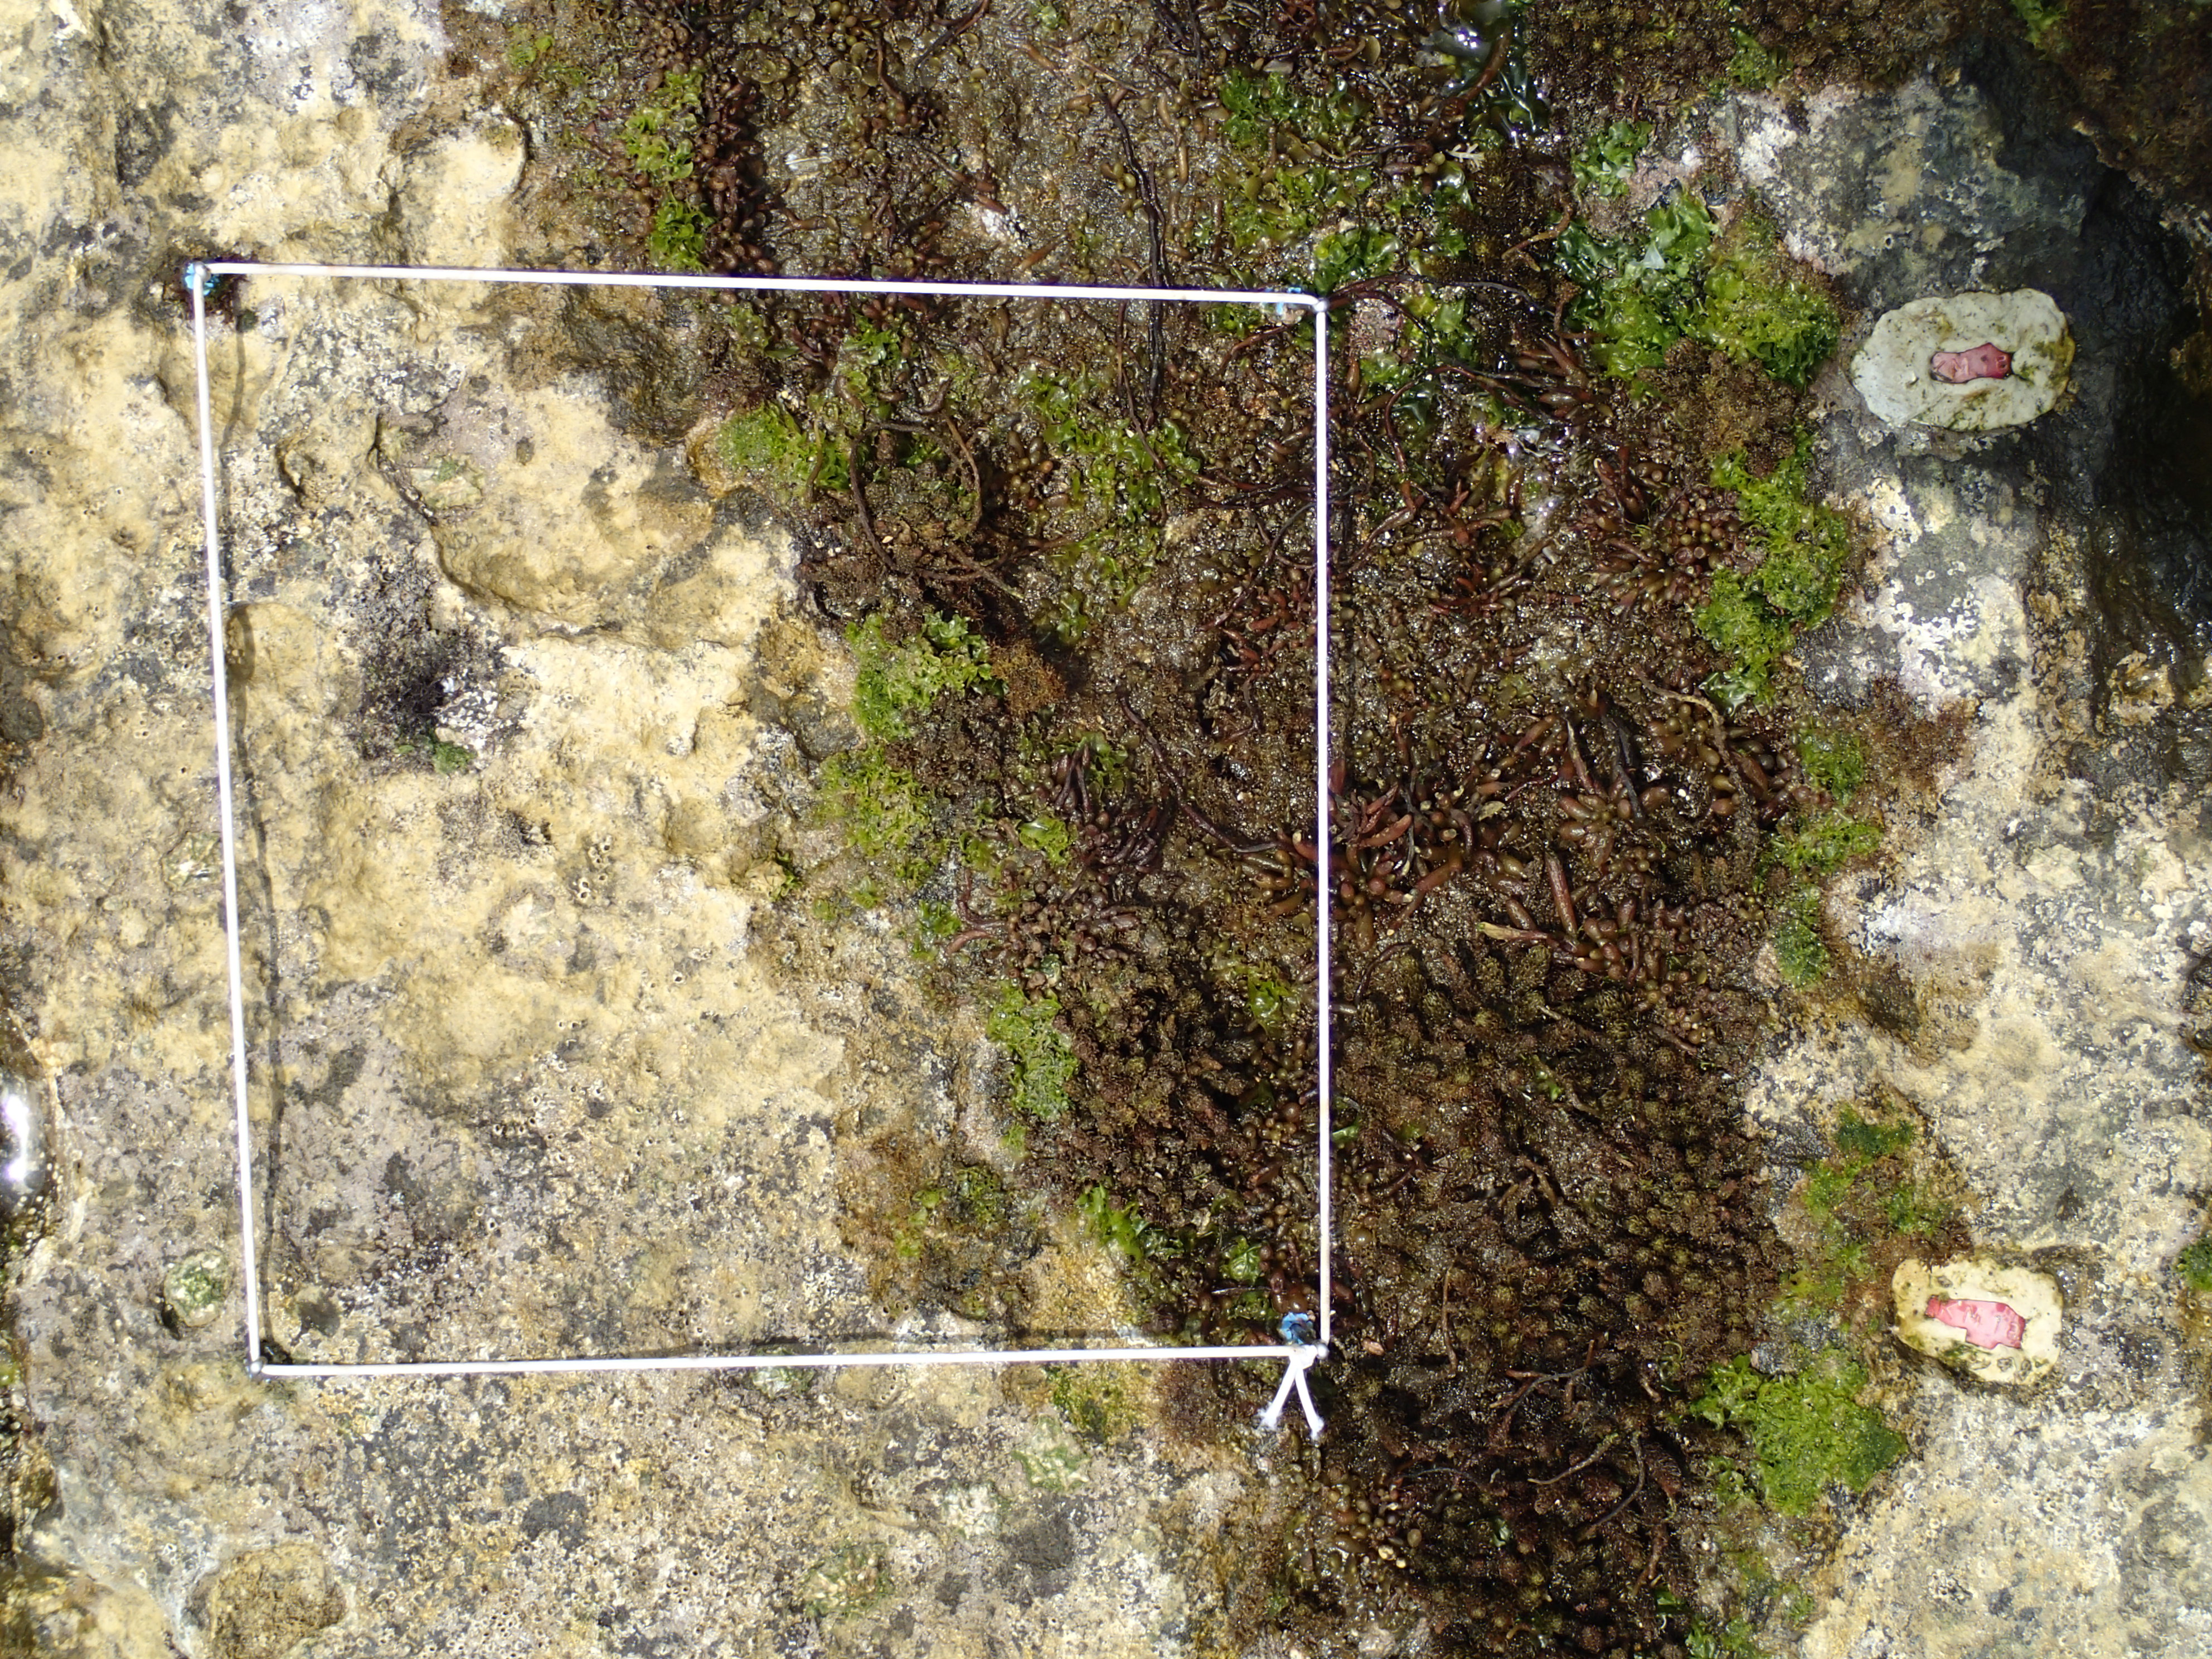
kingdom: Chromista
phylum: Ochrophyta
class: Phaeophyceae
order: Fucales
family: Sargassaceae
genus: Sargassum
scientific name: Sargassum fusiforme
